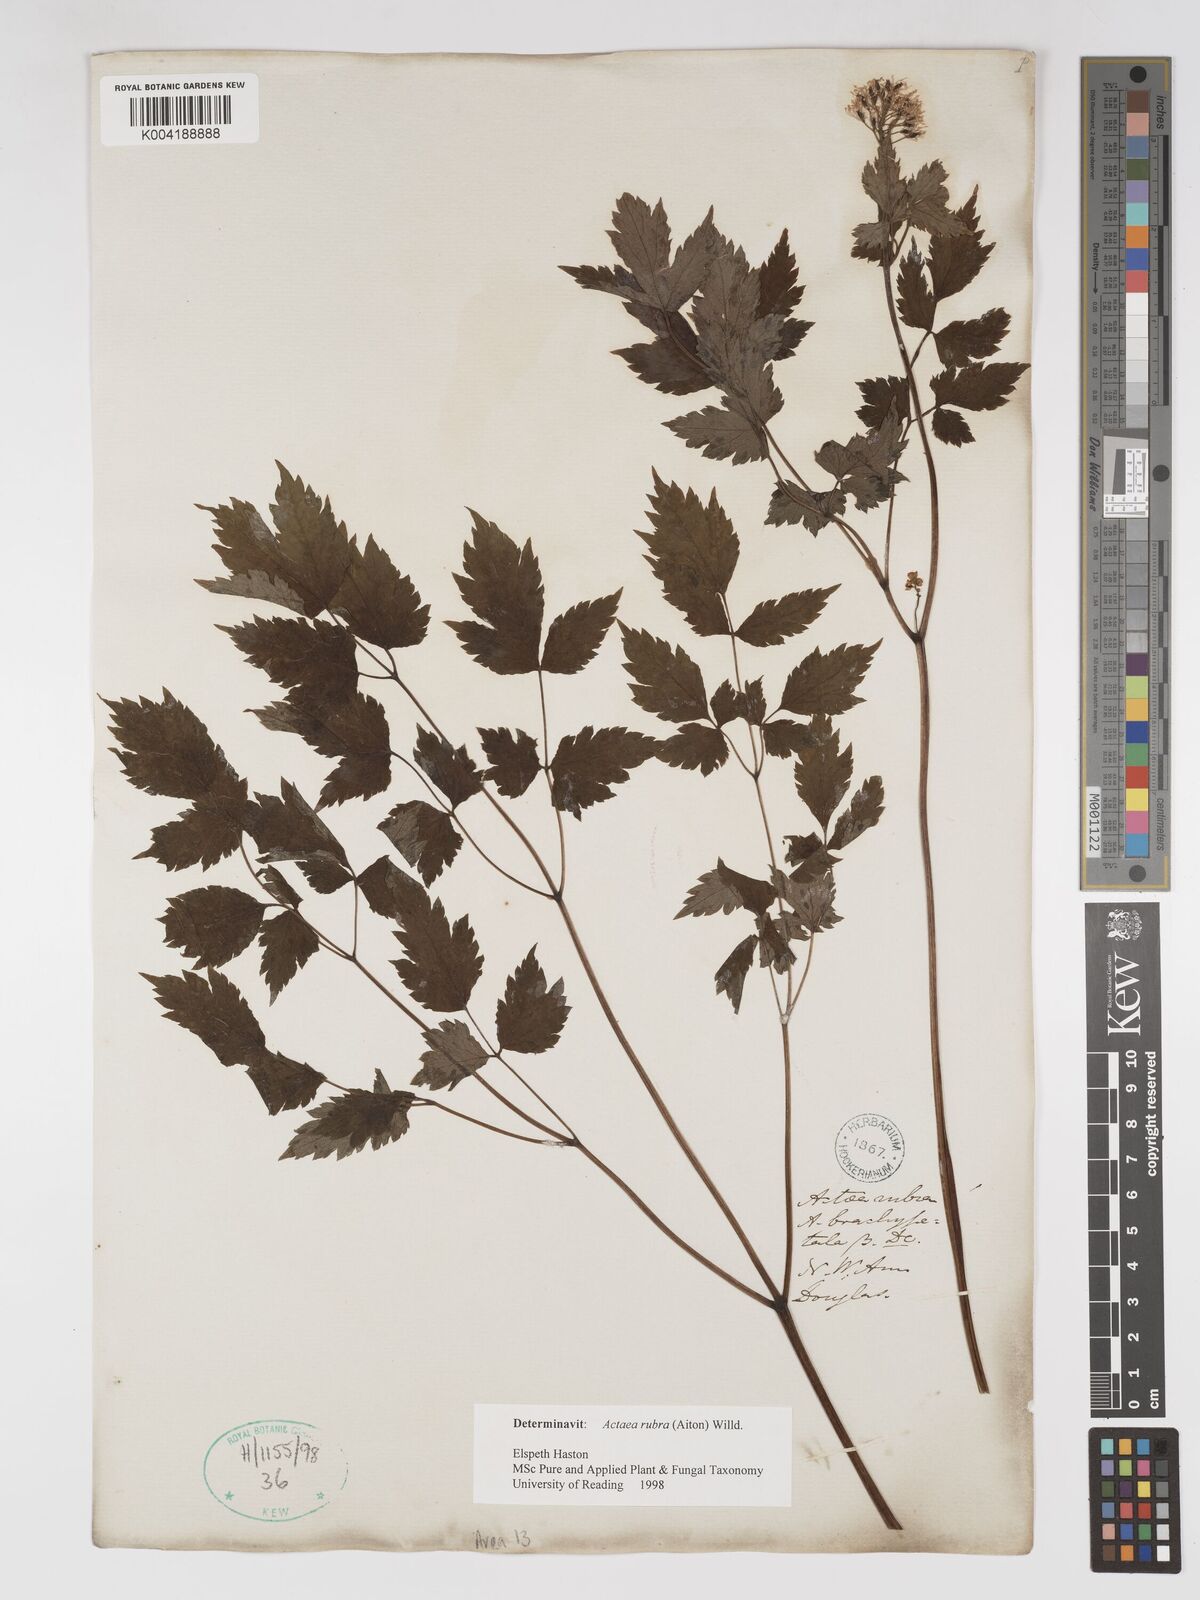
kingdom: Plantae
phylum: Tracheophyta
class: Magnoliopsida
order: Ranunculales
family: Ranunculaceae
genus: Actaea
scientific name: Actaea spicata
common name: Baneberry
